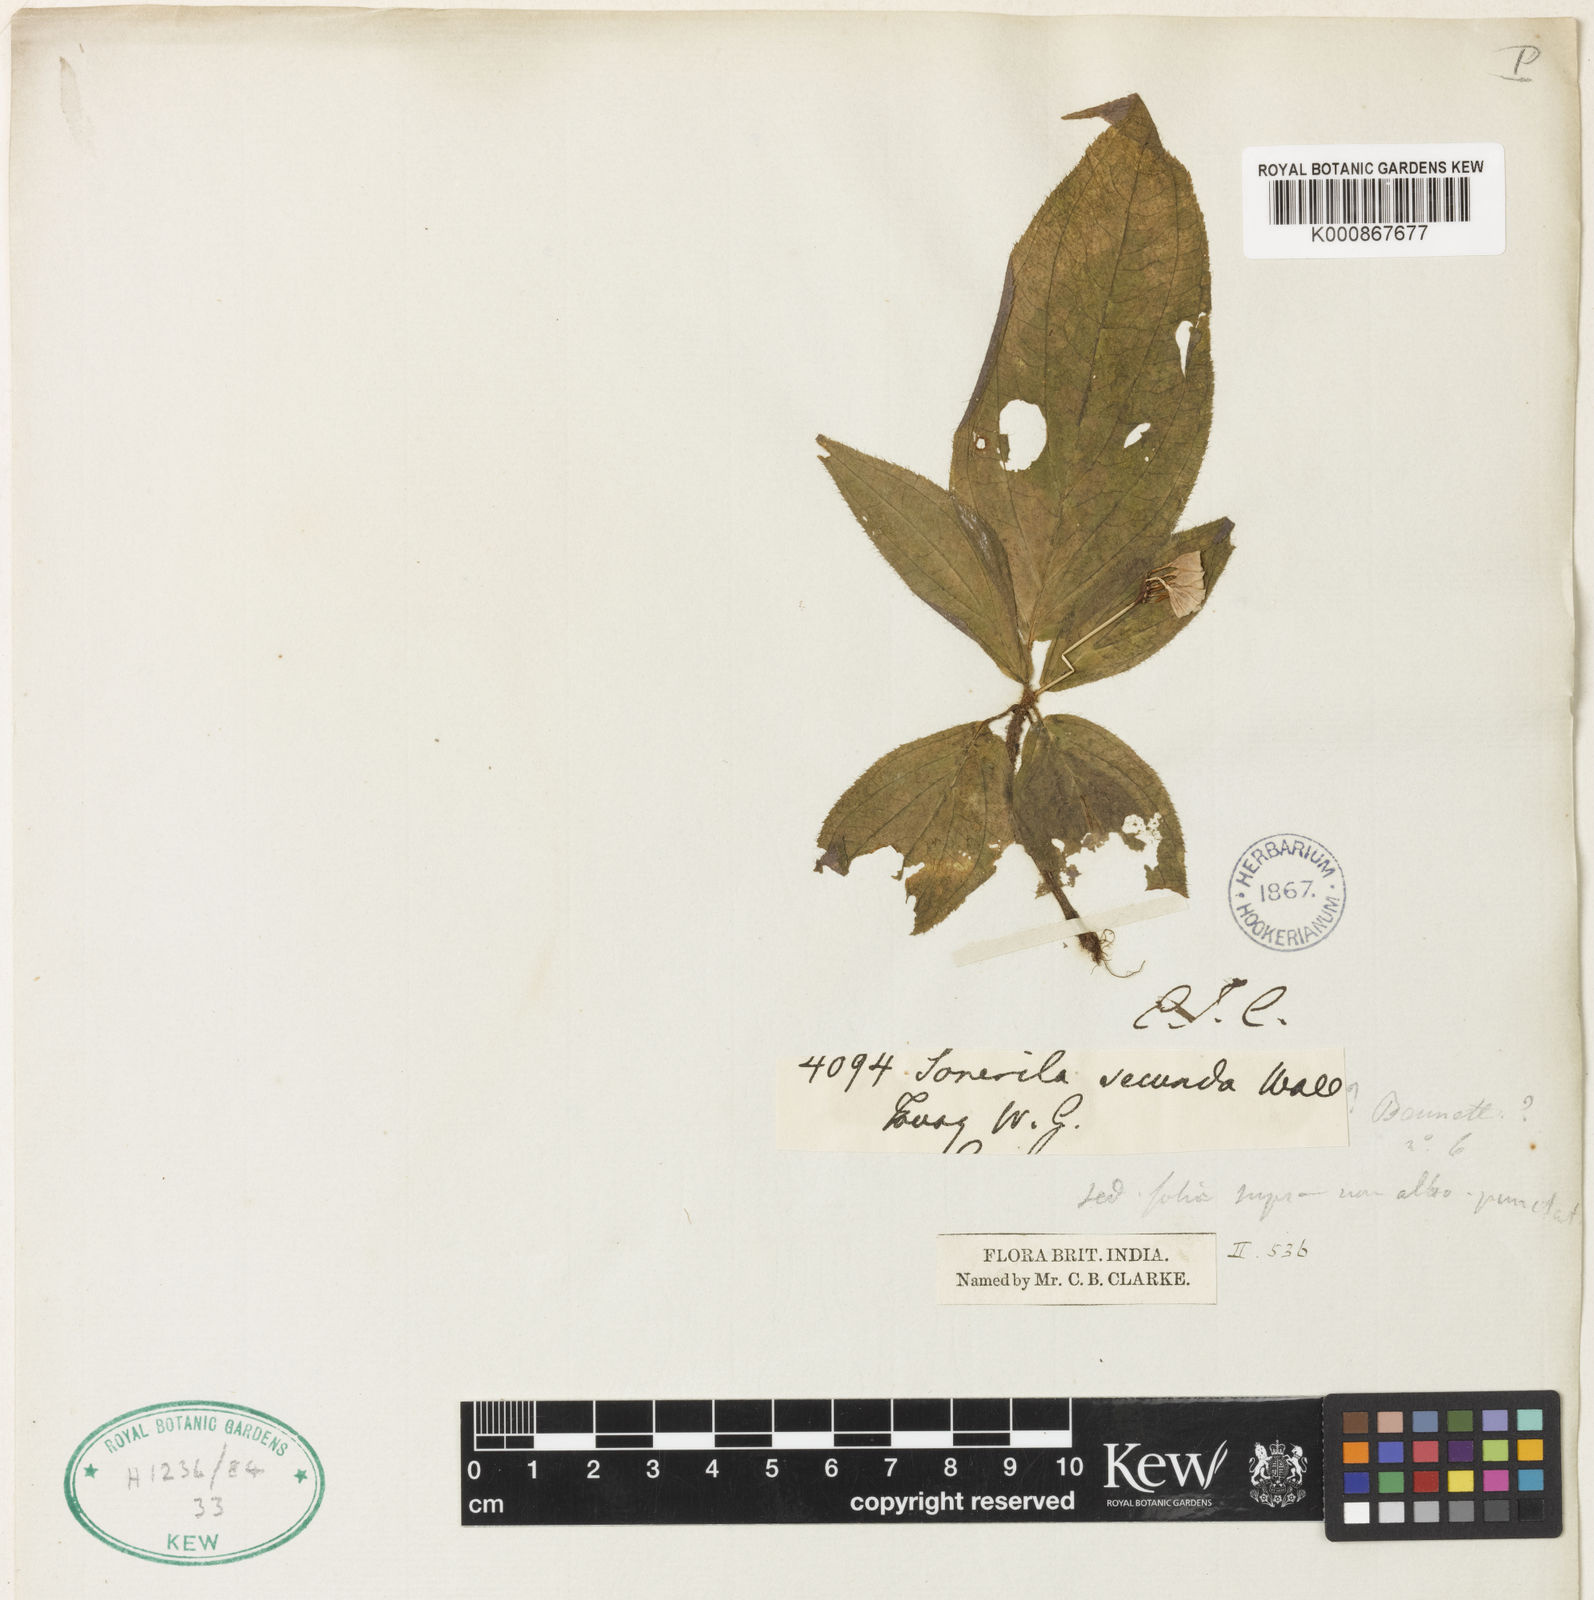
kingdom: Plantae
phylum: Tracheophyta
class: Magnoliopsida
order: Myrtales
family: Melastomataceae
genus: Sonerila
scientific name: Sonerila
